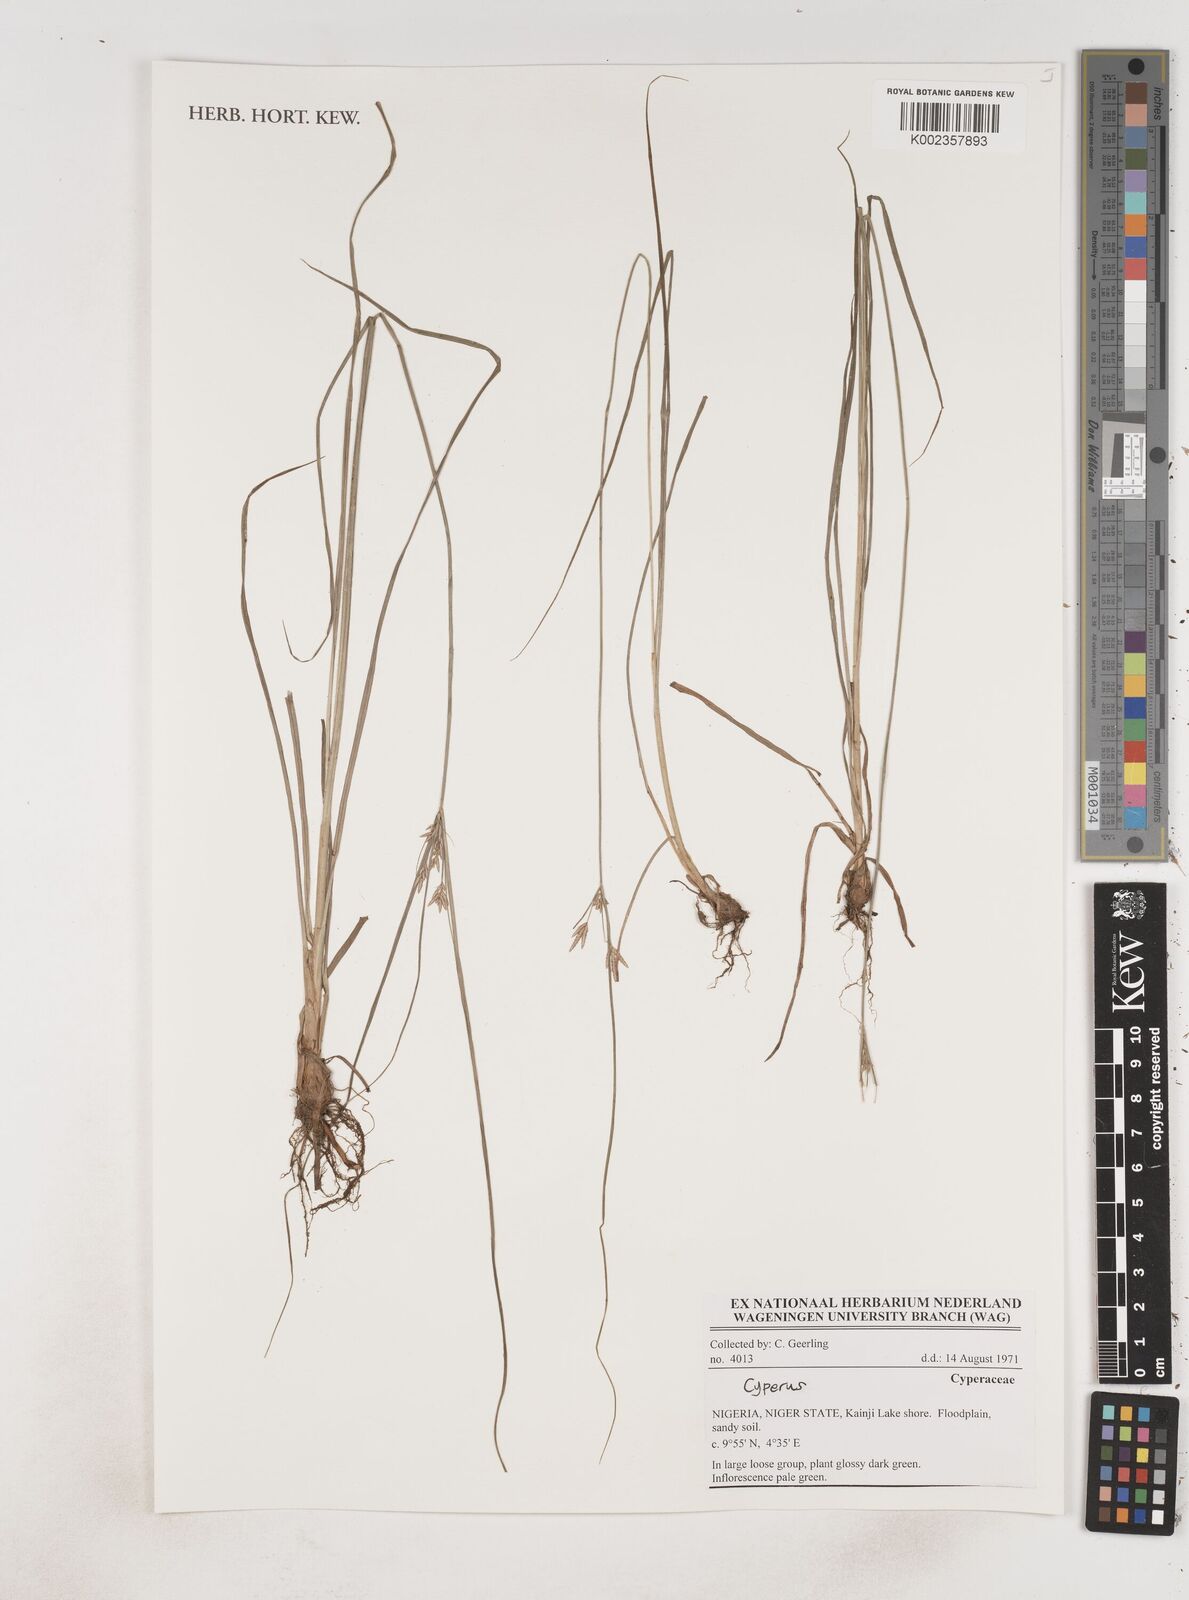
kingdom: Plantae
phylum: Tracheophyta
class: Liliopsida
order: Poales
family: Cyperaceae
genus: Cyperus
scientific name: Cyperus
